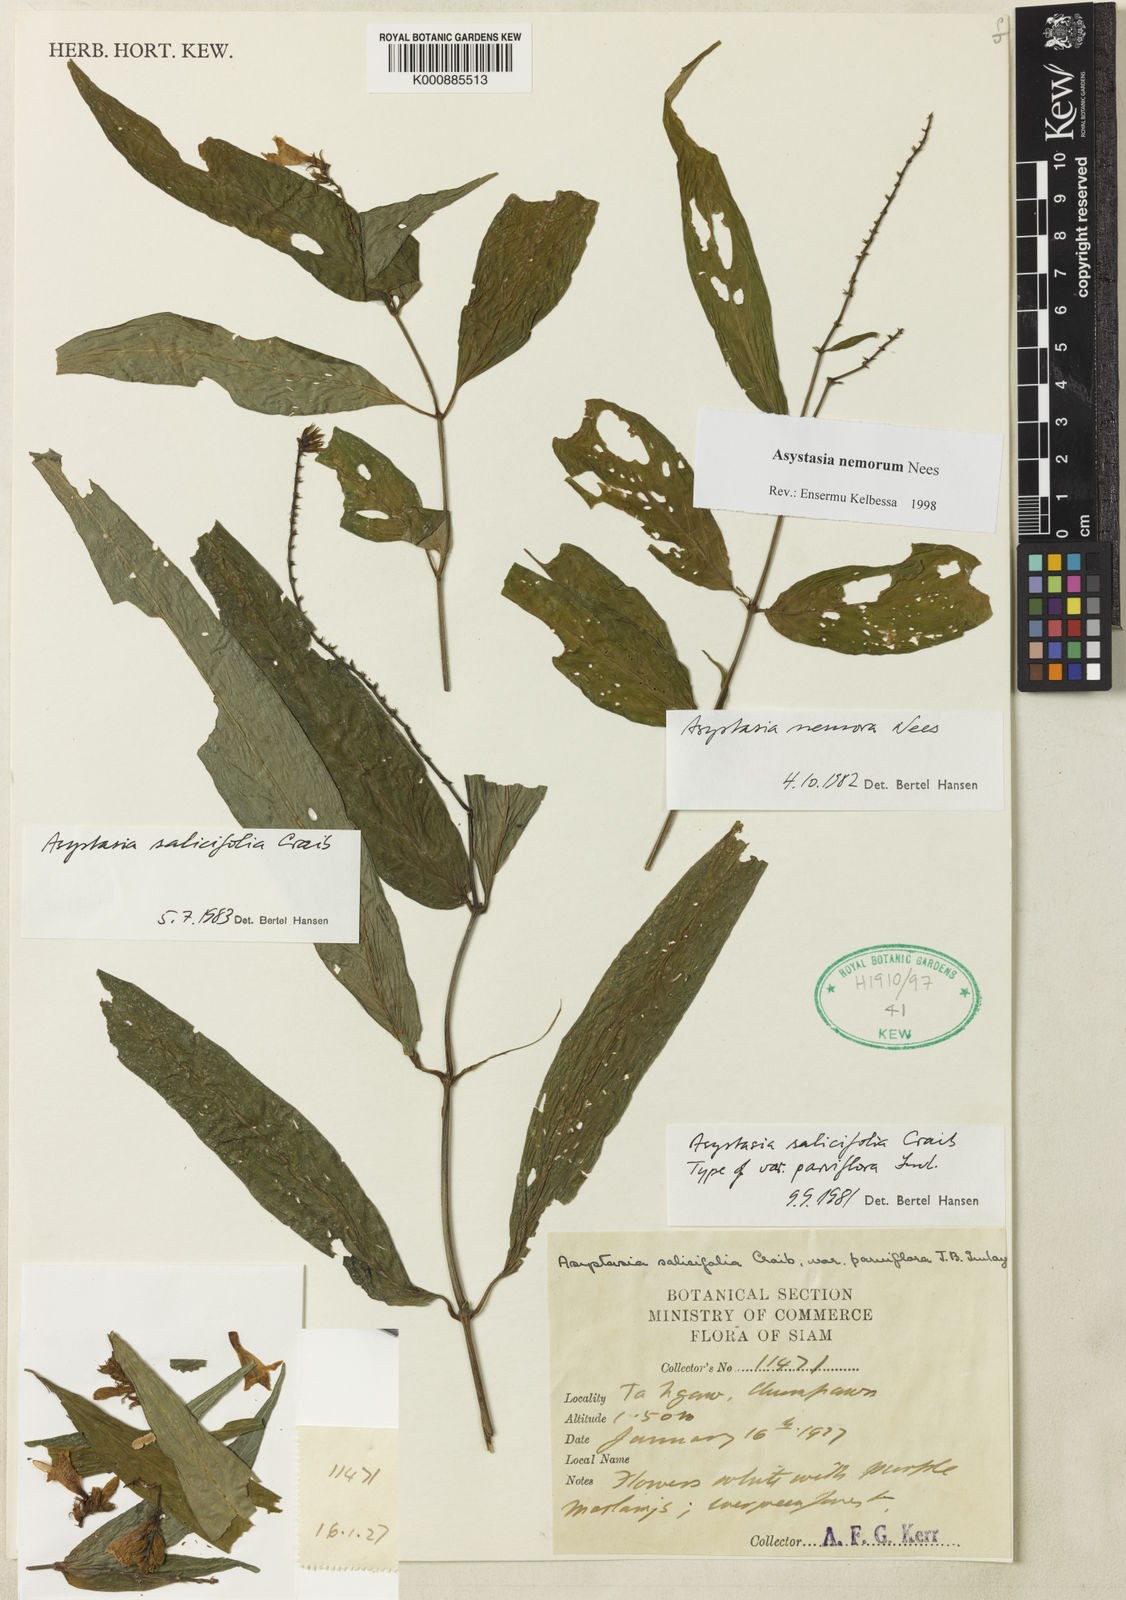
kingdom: Plantae
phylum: Tracheophyta
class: Magnoliopsida
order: Lamiales
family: Acanthaceae
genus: Asystasia
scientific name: Asystasia nemorum
